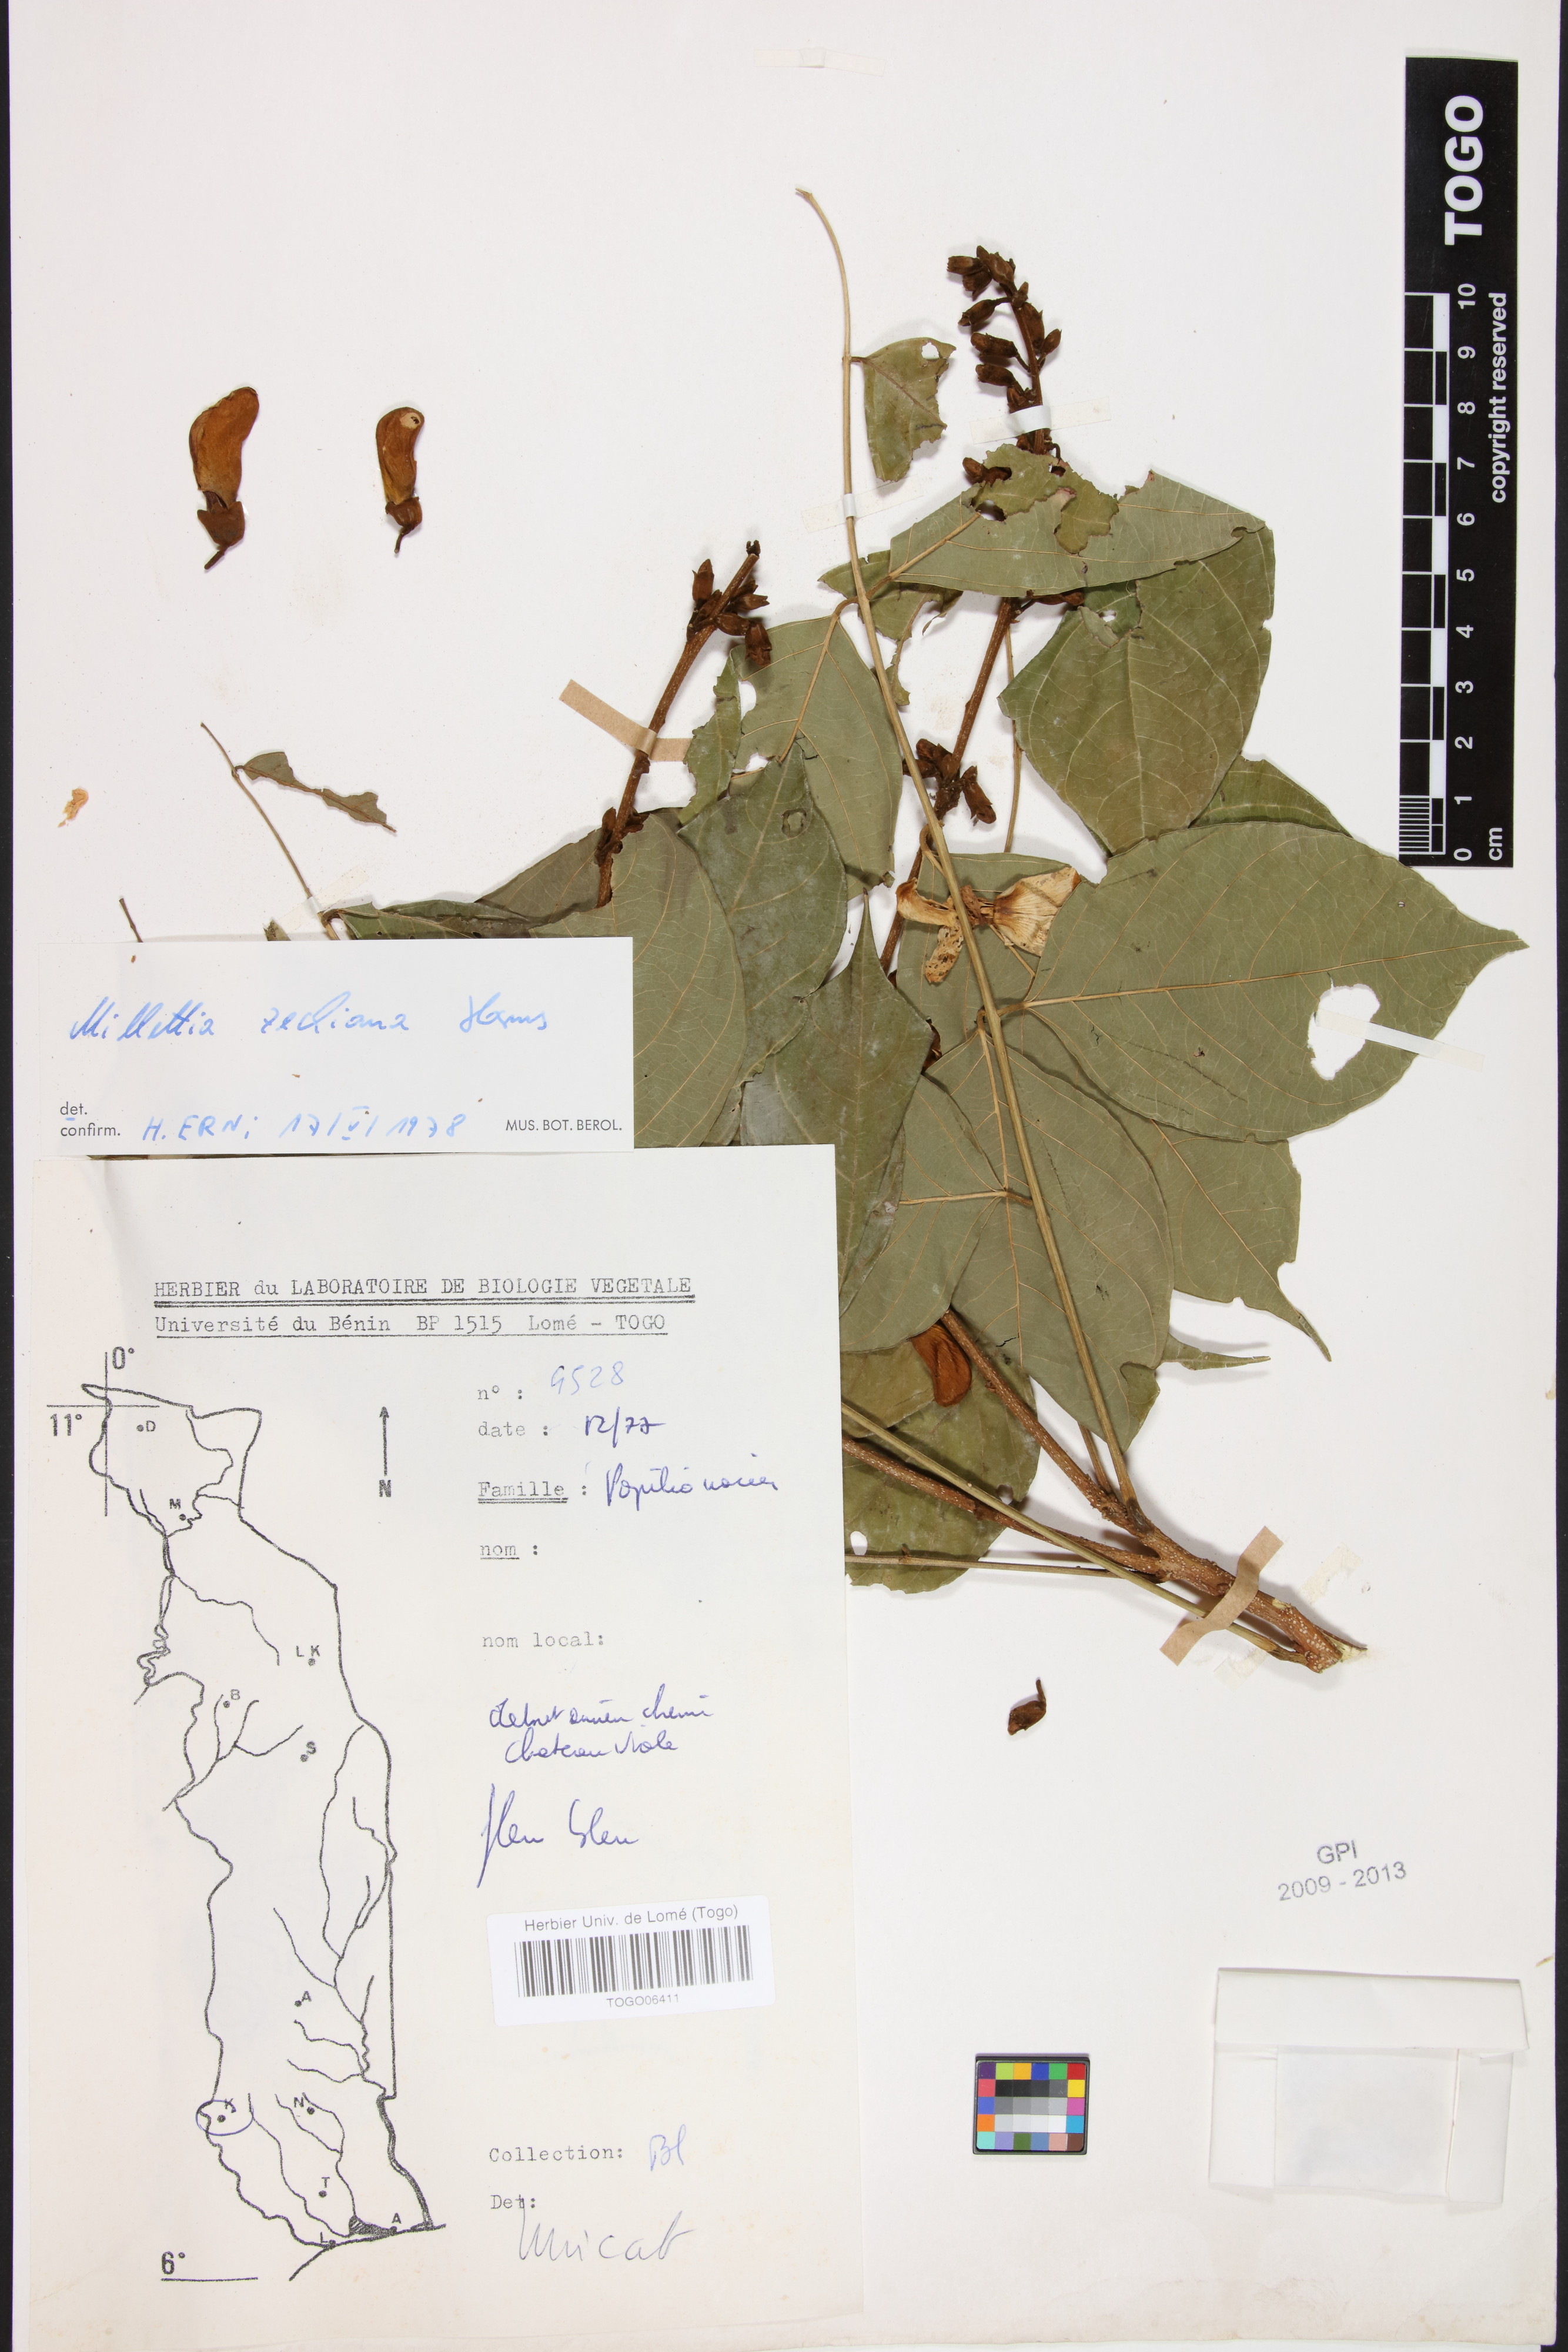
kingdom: Plantae
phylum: Tracheophyta
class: Magnoliopsida
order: Fabales
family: Fabaceae
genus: Millettia
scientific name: Millettia zechiana
